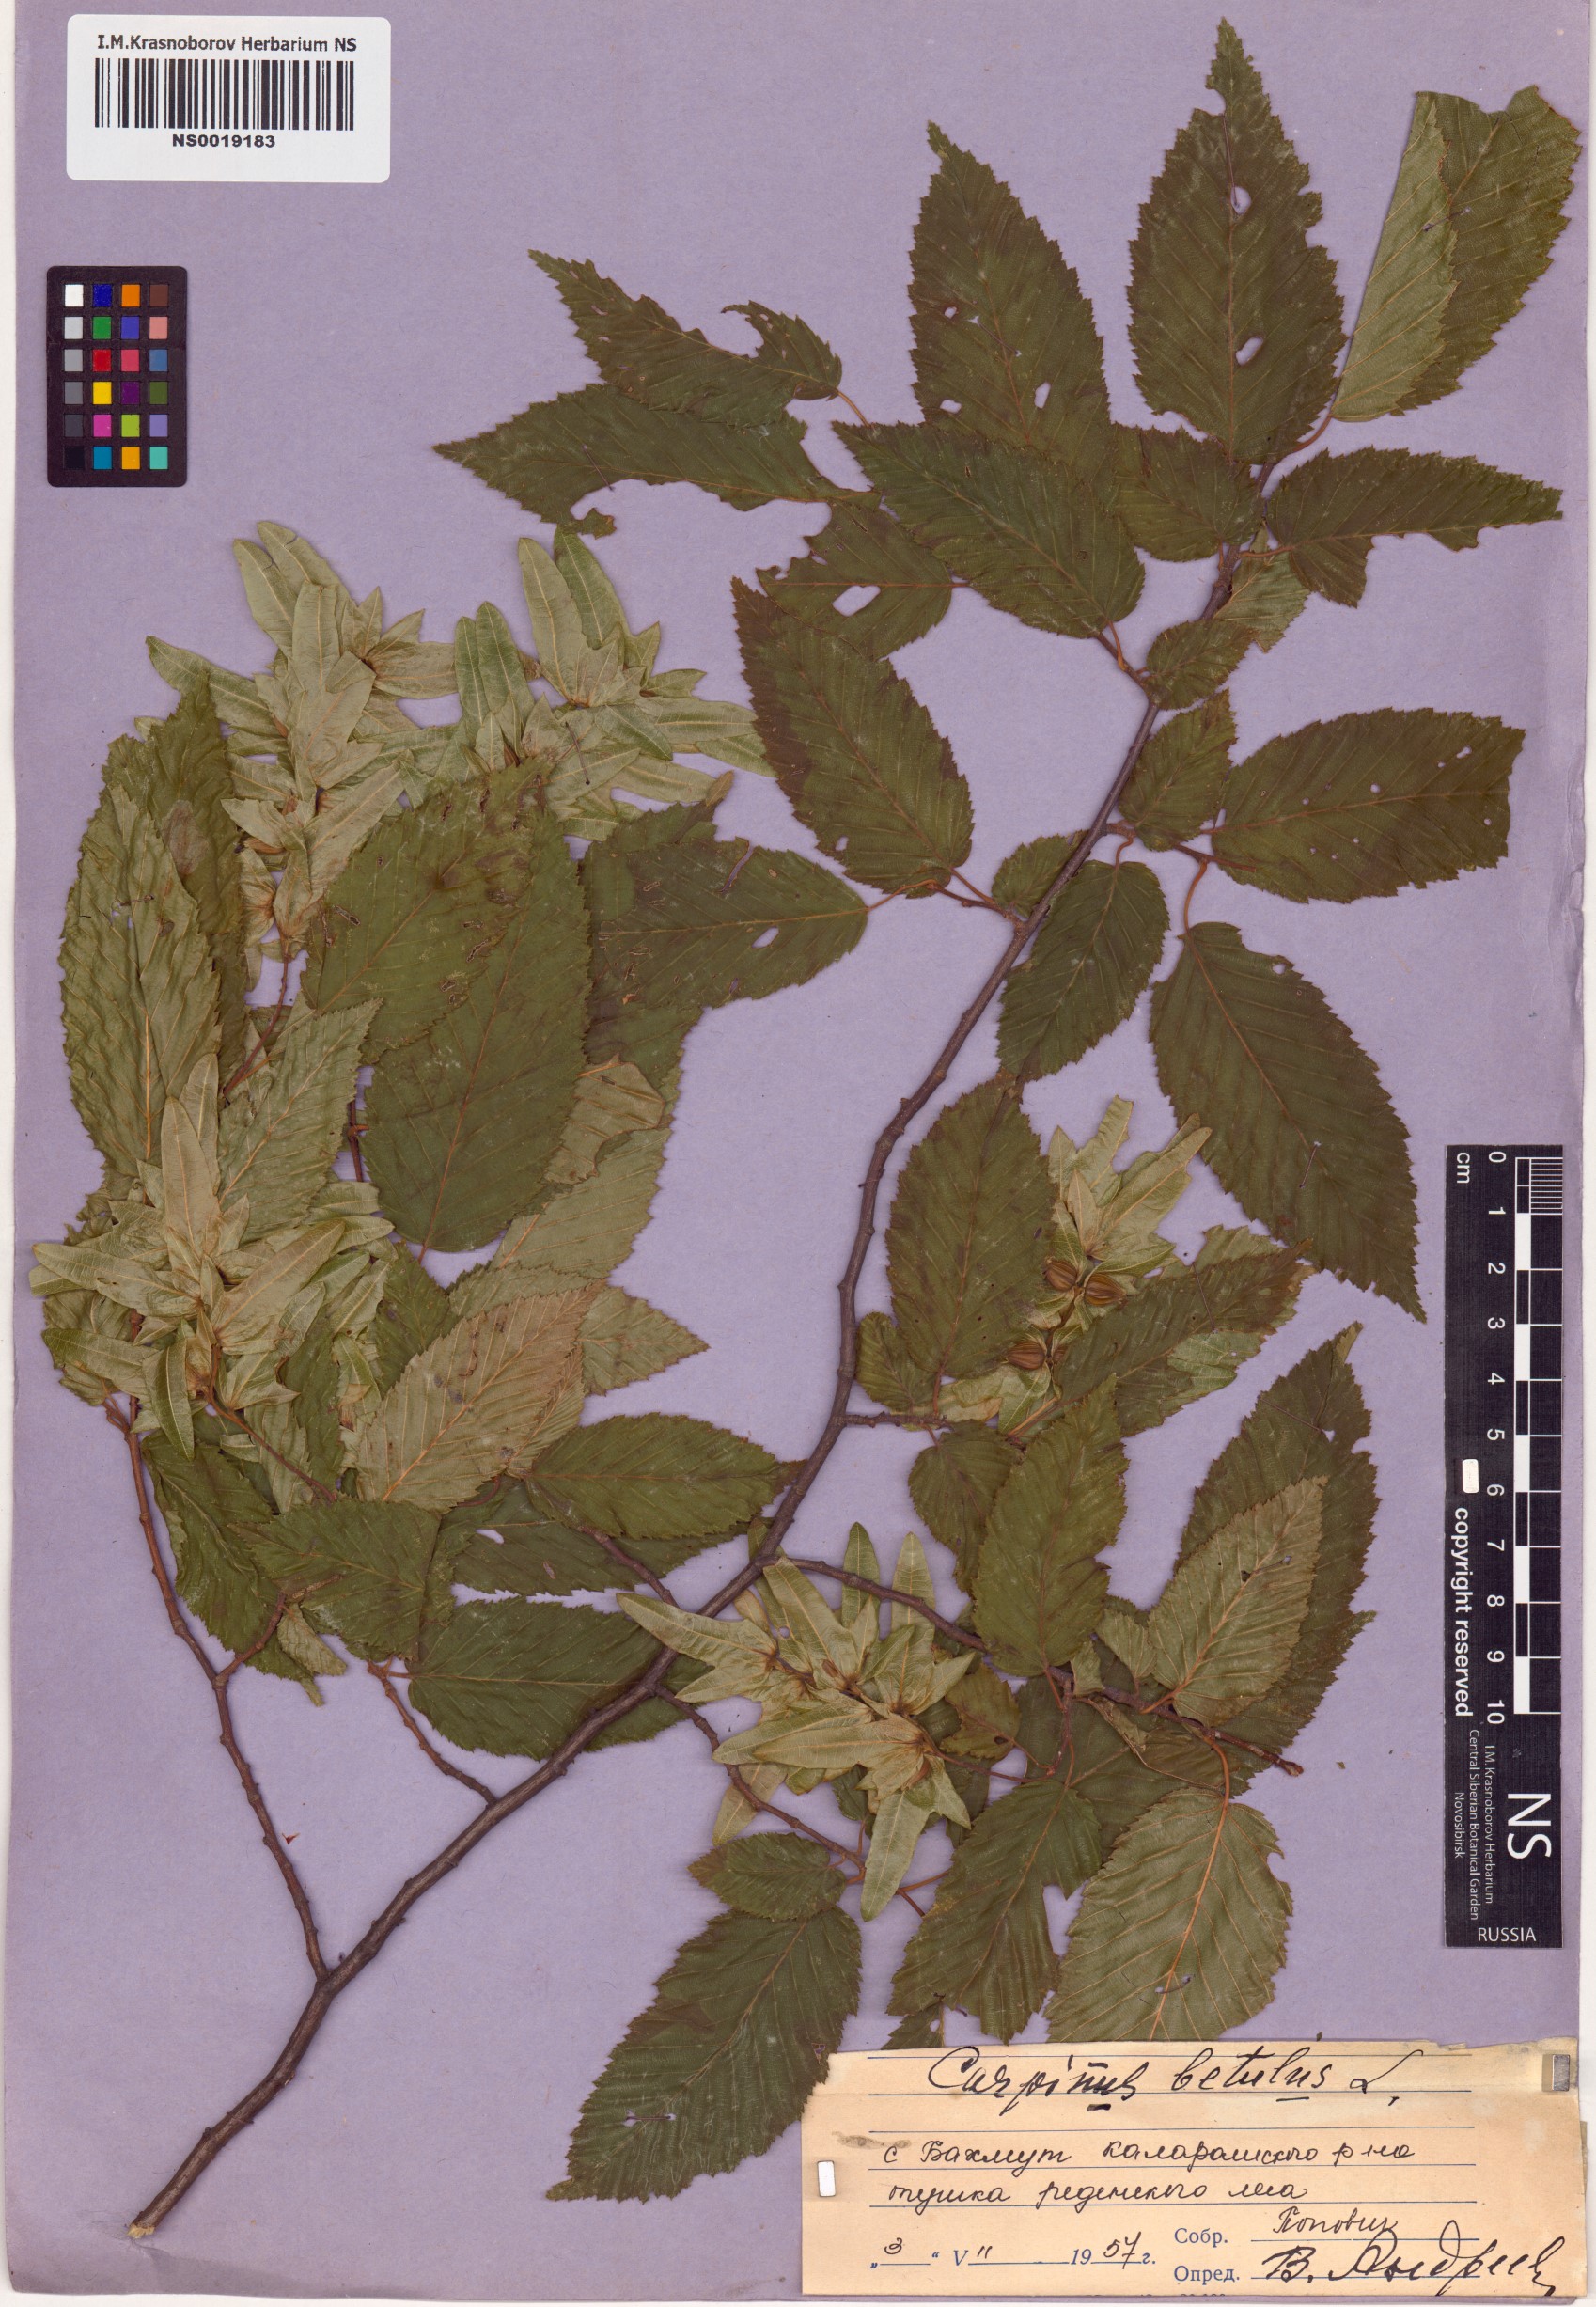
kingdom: Plantae
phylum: Tracheophyta
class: Magnoliopsida
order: Fagales
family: Betulaceae
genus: Carpinus
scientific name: Carpinus betulus
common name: Hornbeam
